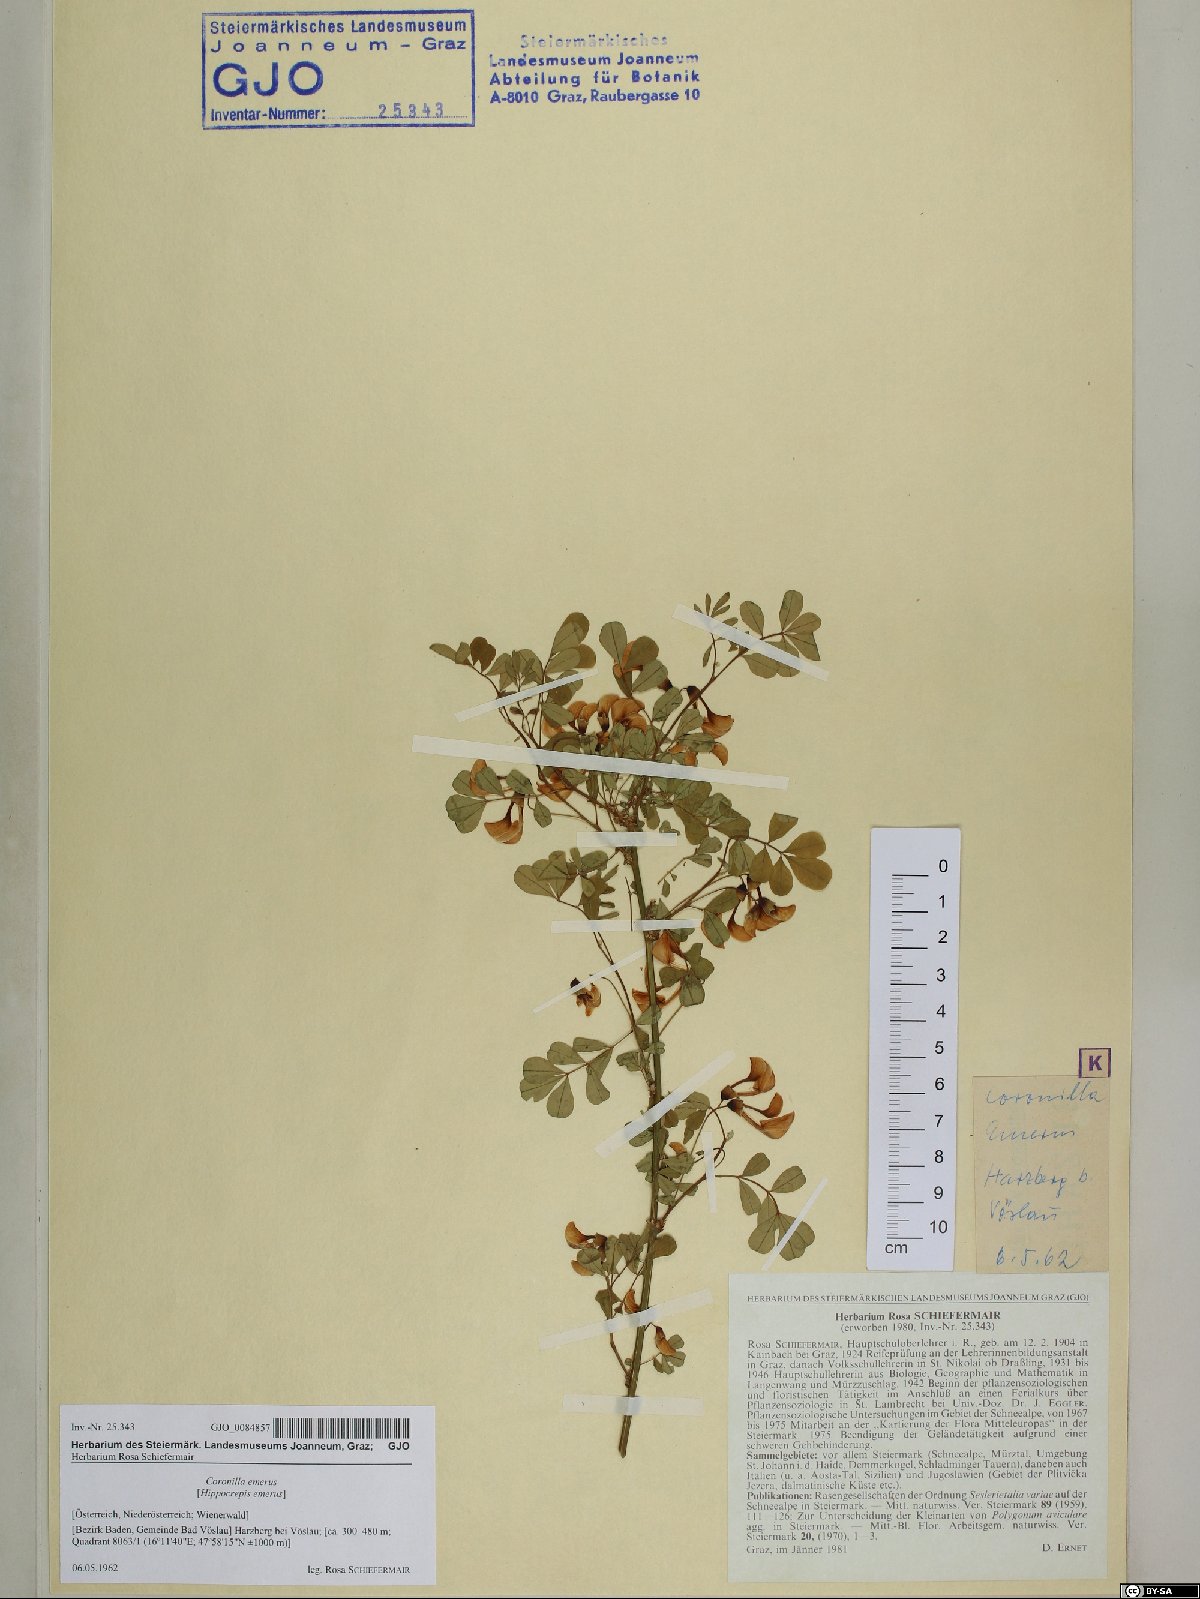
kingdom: Plantae
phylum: Tracheophyta
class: Magnoliopsida
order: Fabales
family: Fabaceae
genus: Hippocrepis
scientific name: Hippocrepis emerus
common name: Scorpion senna
